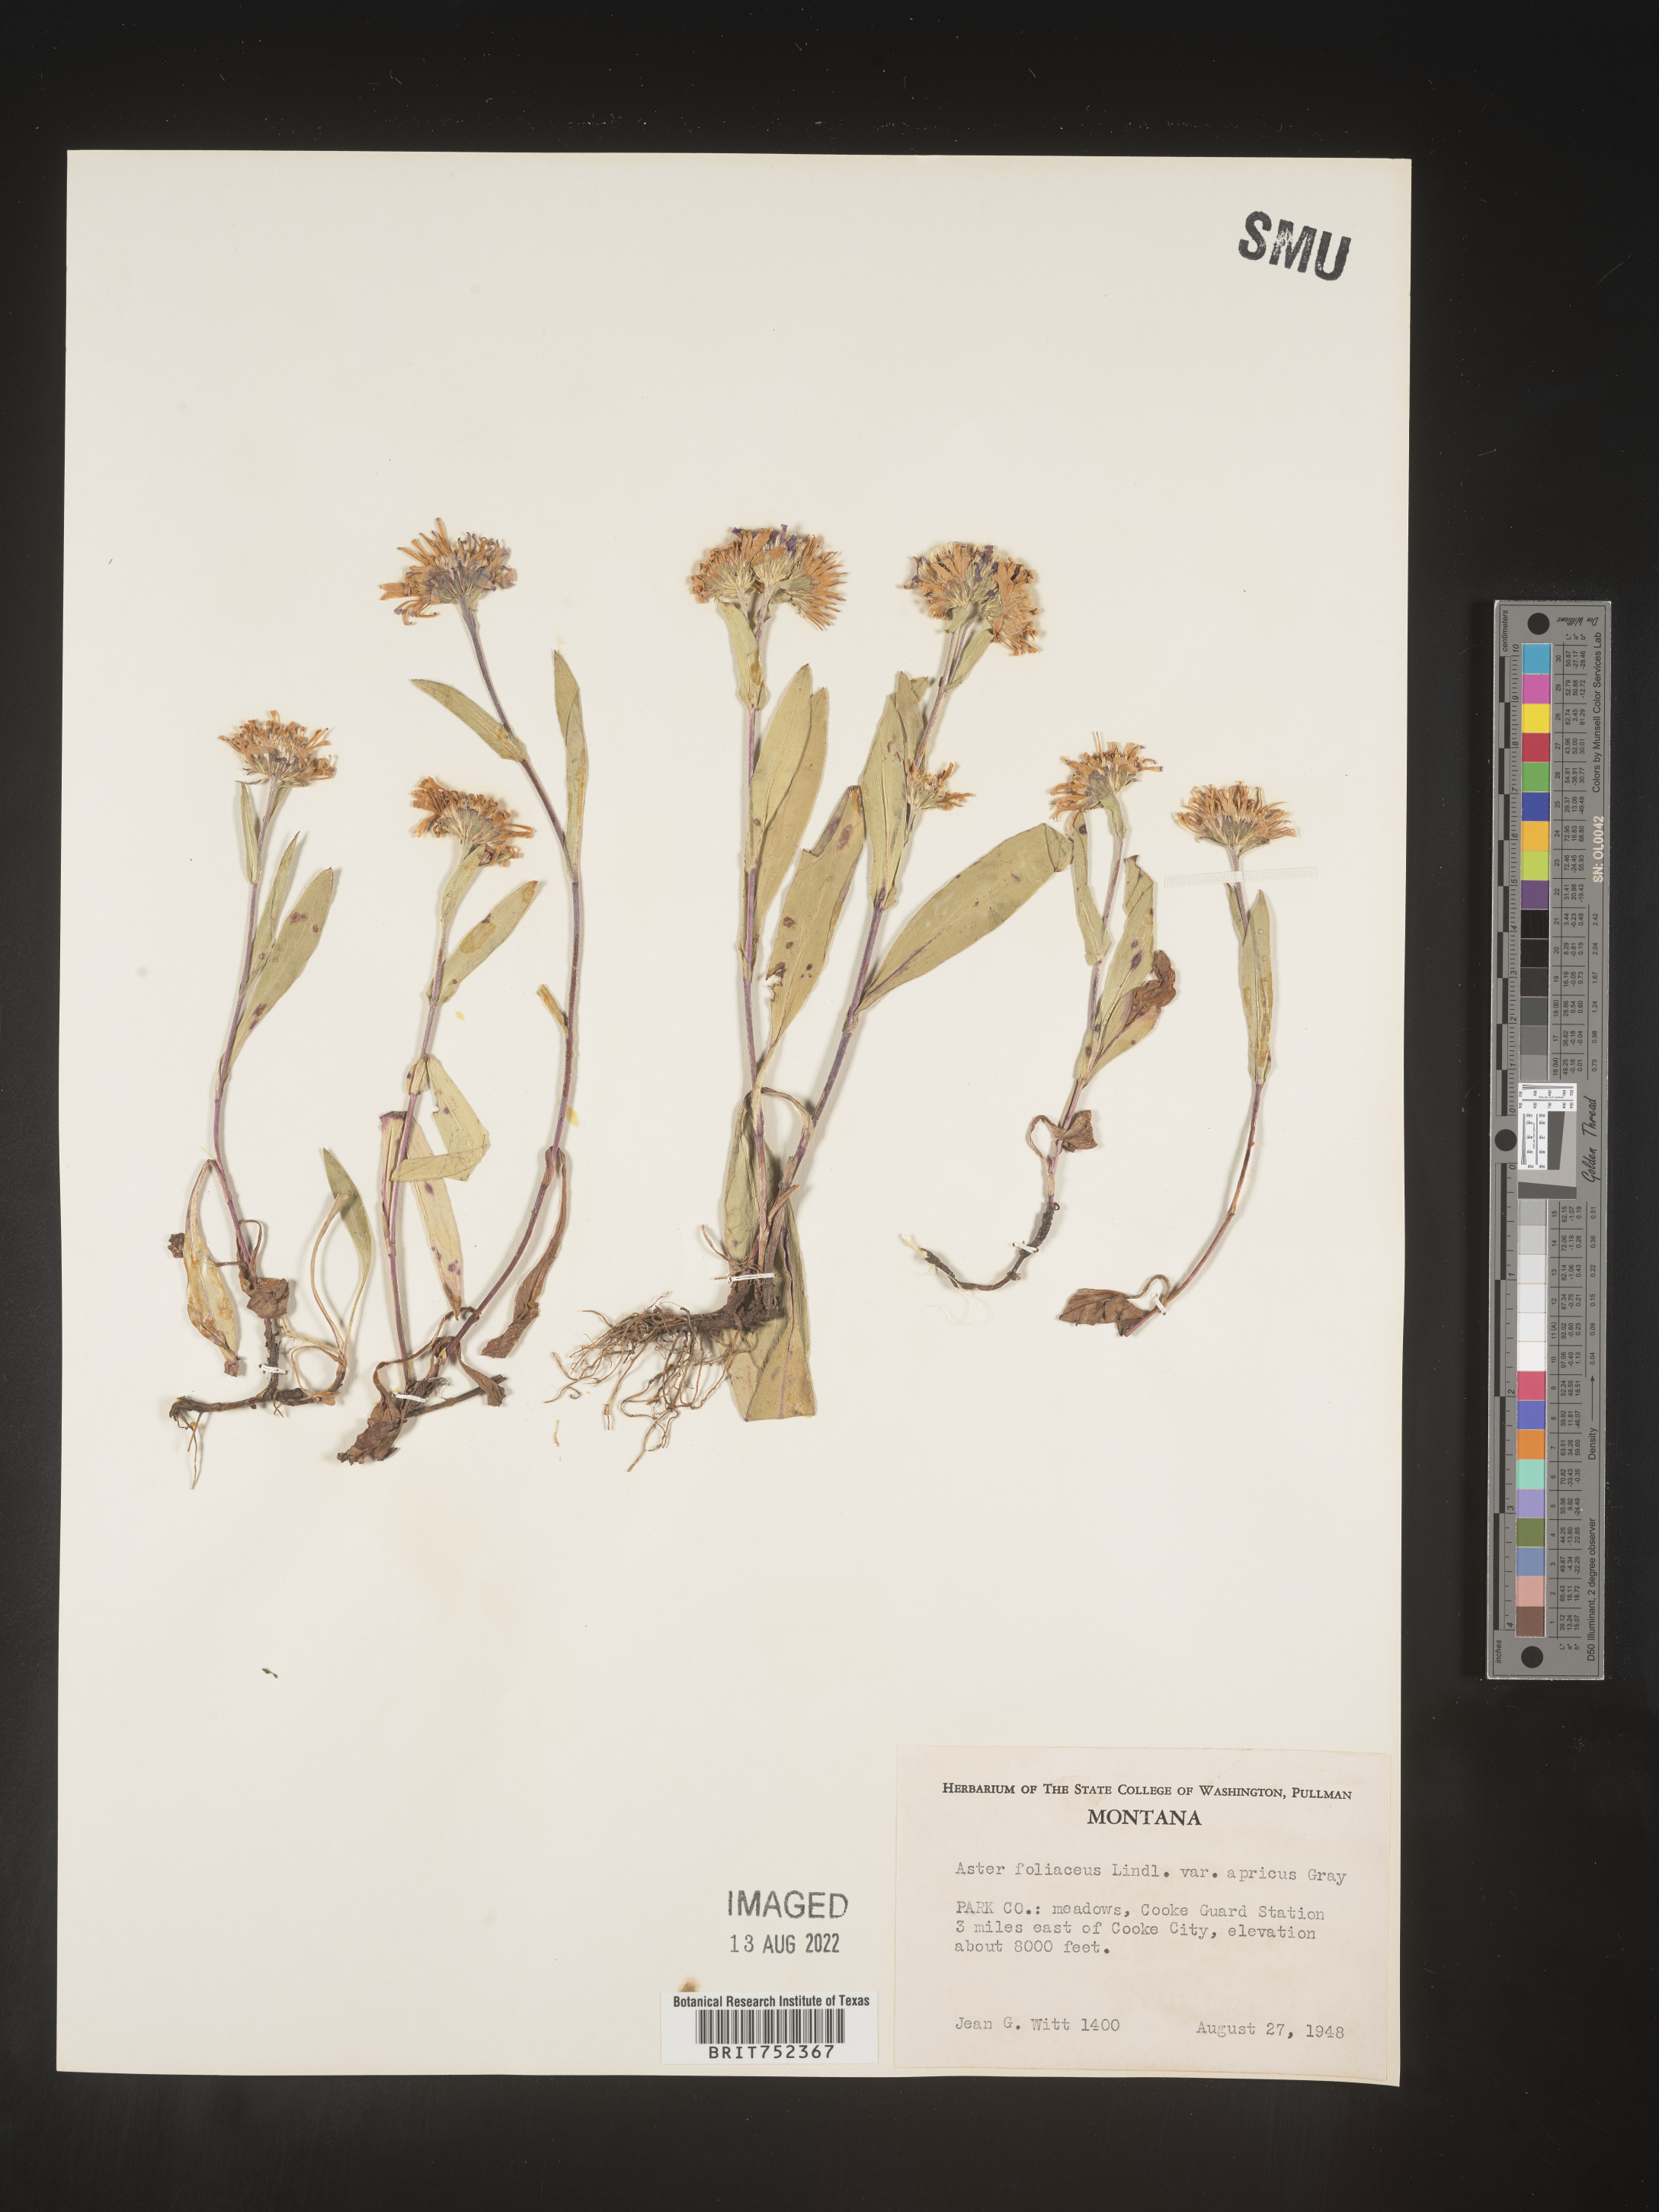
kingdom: Plantae
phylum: Tracheophyta
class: Magnoliopsida
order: Asterales
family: Asteraceae
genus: Symphyotrichum
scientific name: Symphyotrichum foliaceum
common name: Leafy aster
